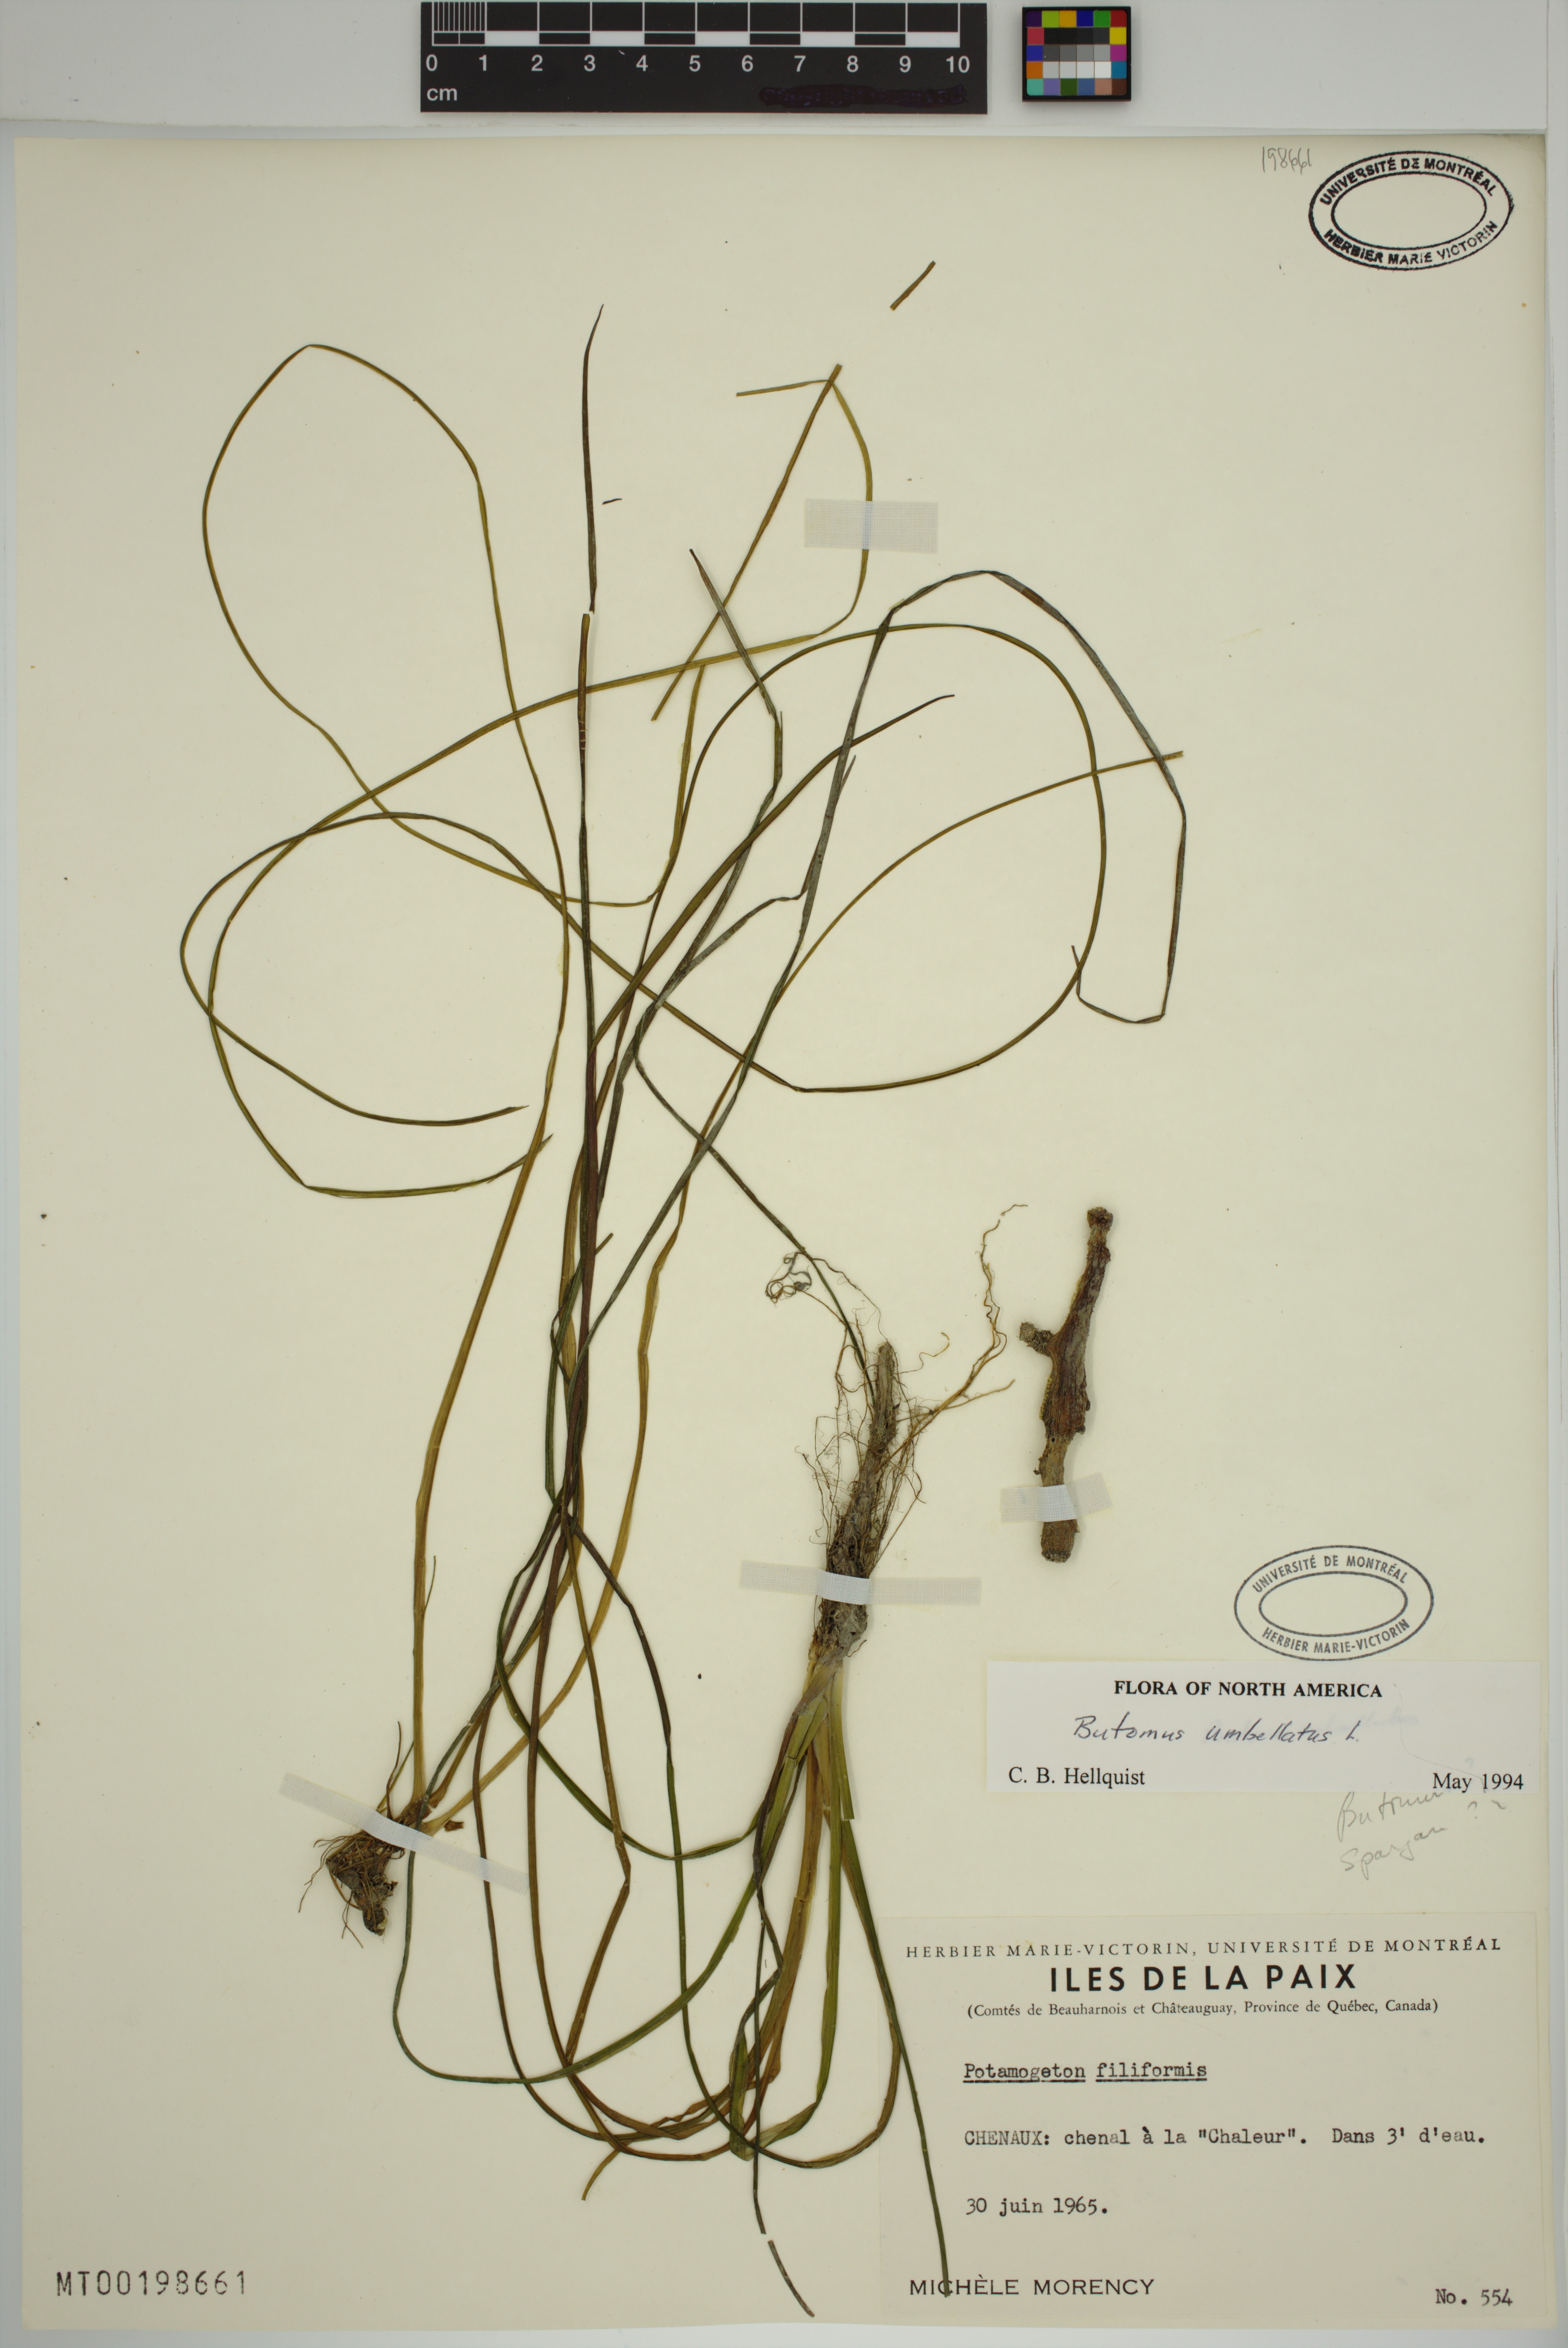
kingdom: Plantae
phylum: Tracheophyta
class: Liliopsida
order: Alismatales
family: Butomaceae
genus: Butomus
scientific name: Butomus umbellatus
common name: Flowering-rush
